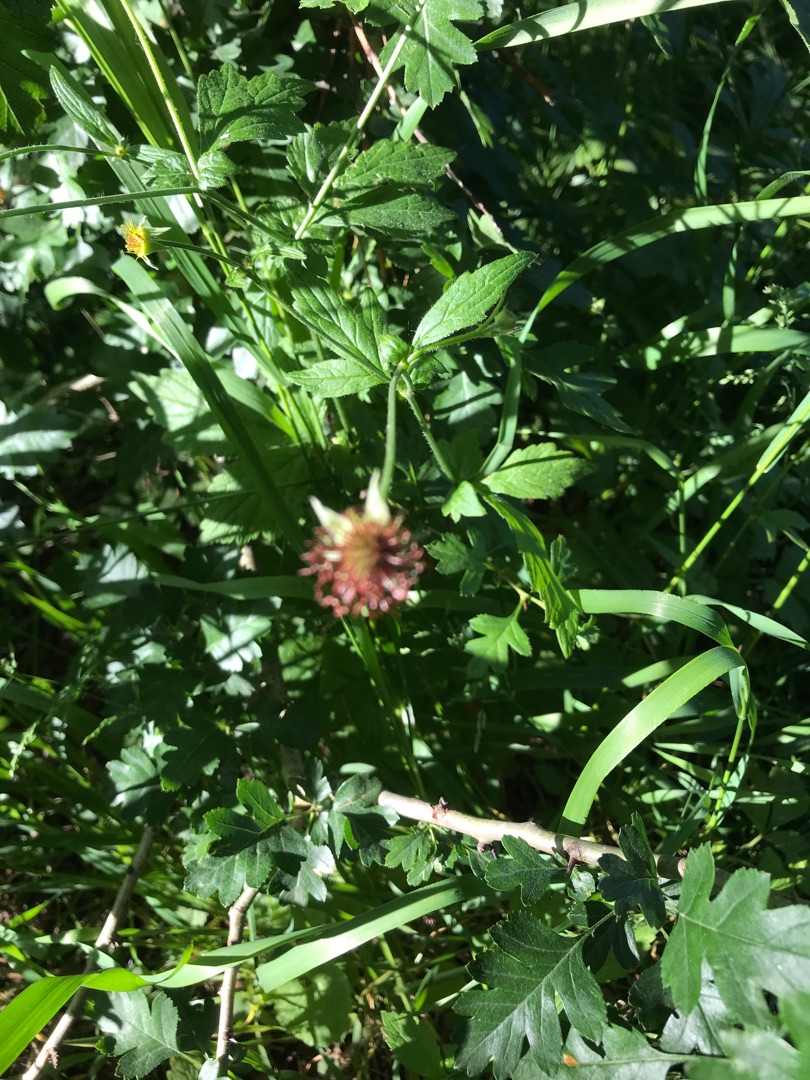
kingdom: Plantae
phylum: Tracheophyta
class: Magnoliopsida
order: Rosales
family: Rosaceae
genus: Geum
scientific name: Geum urbanum
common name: Feber-nellikerod
